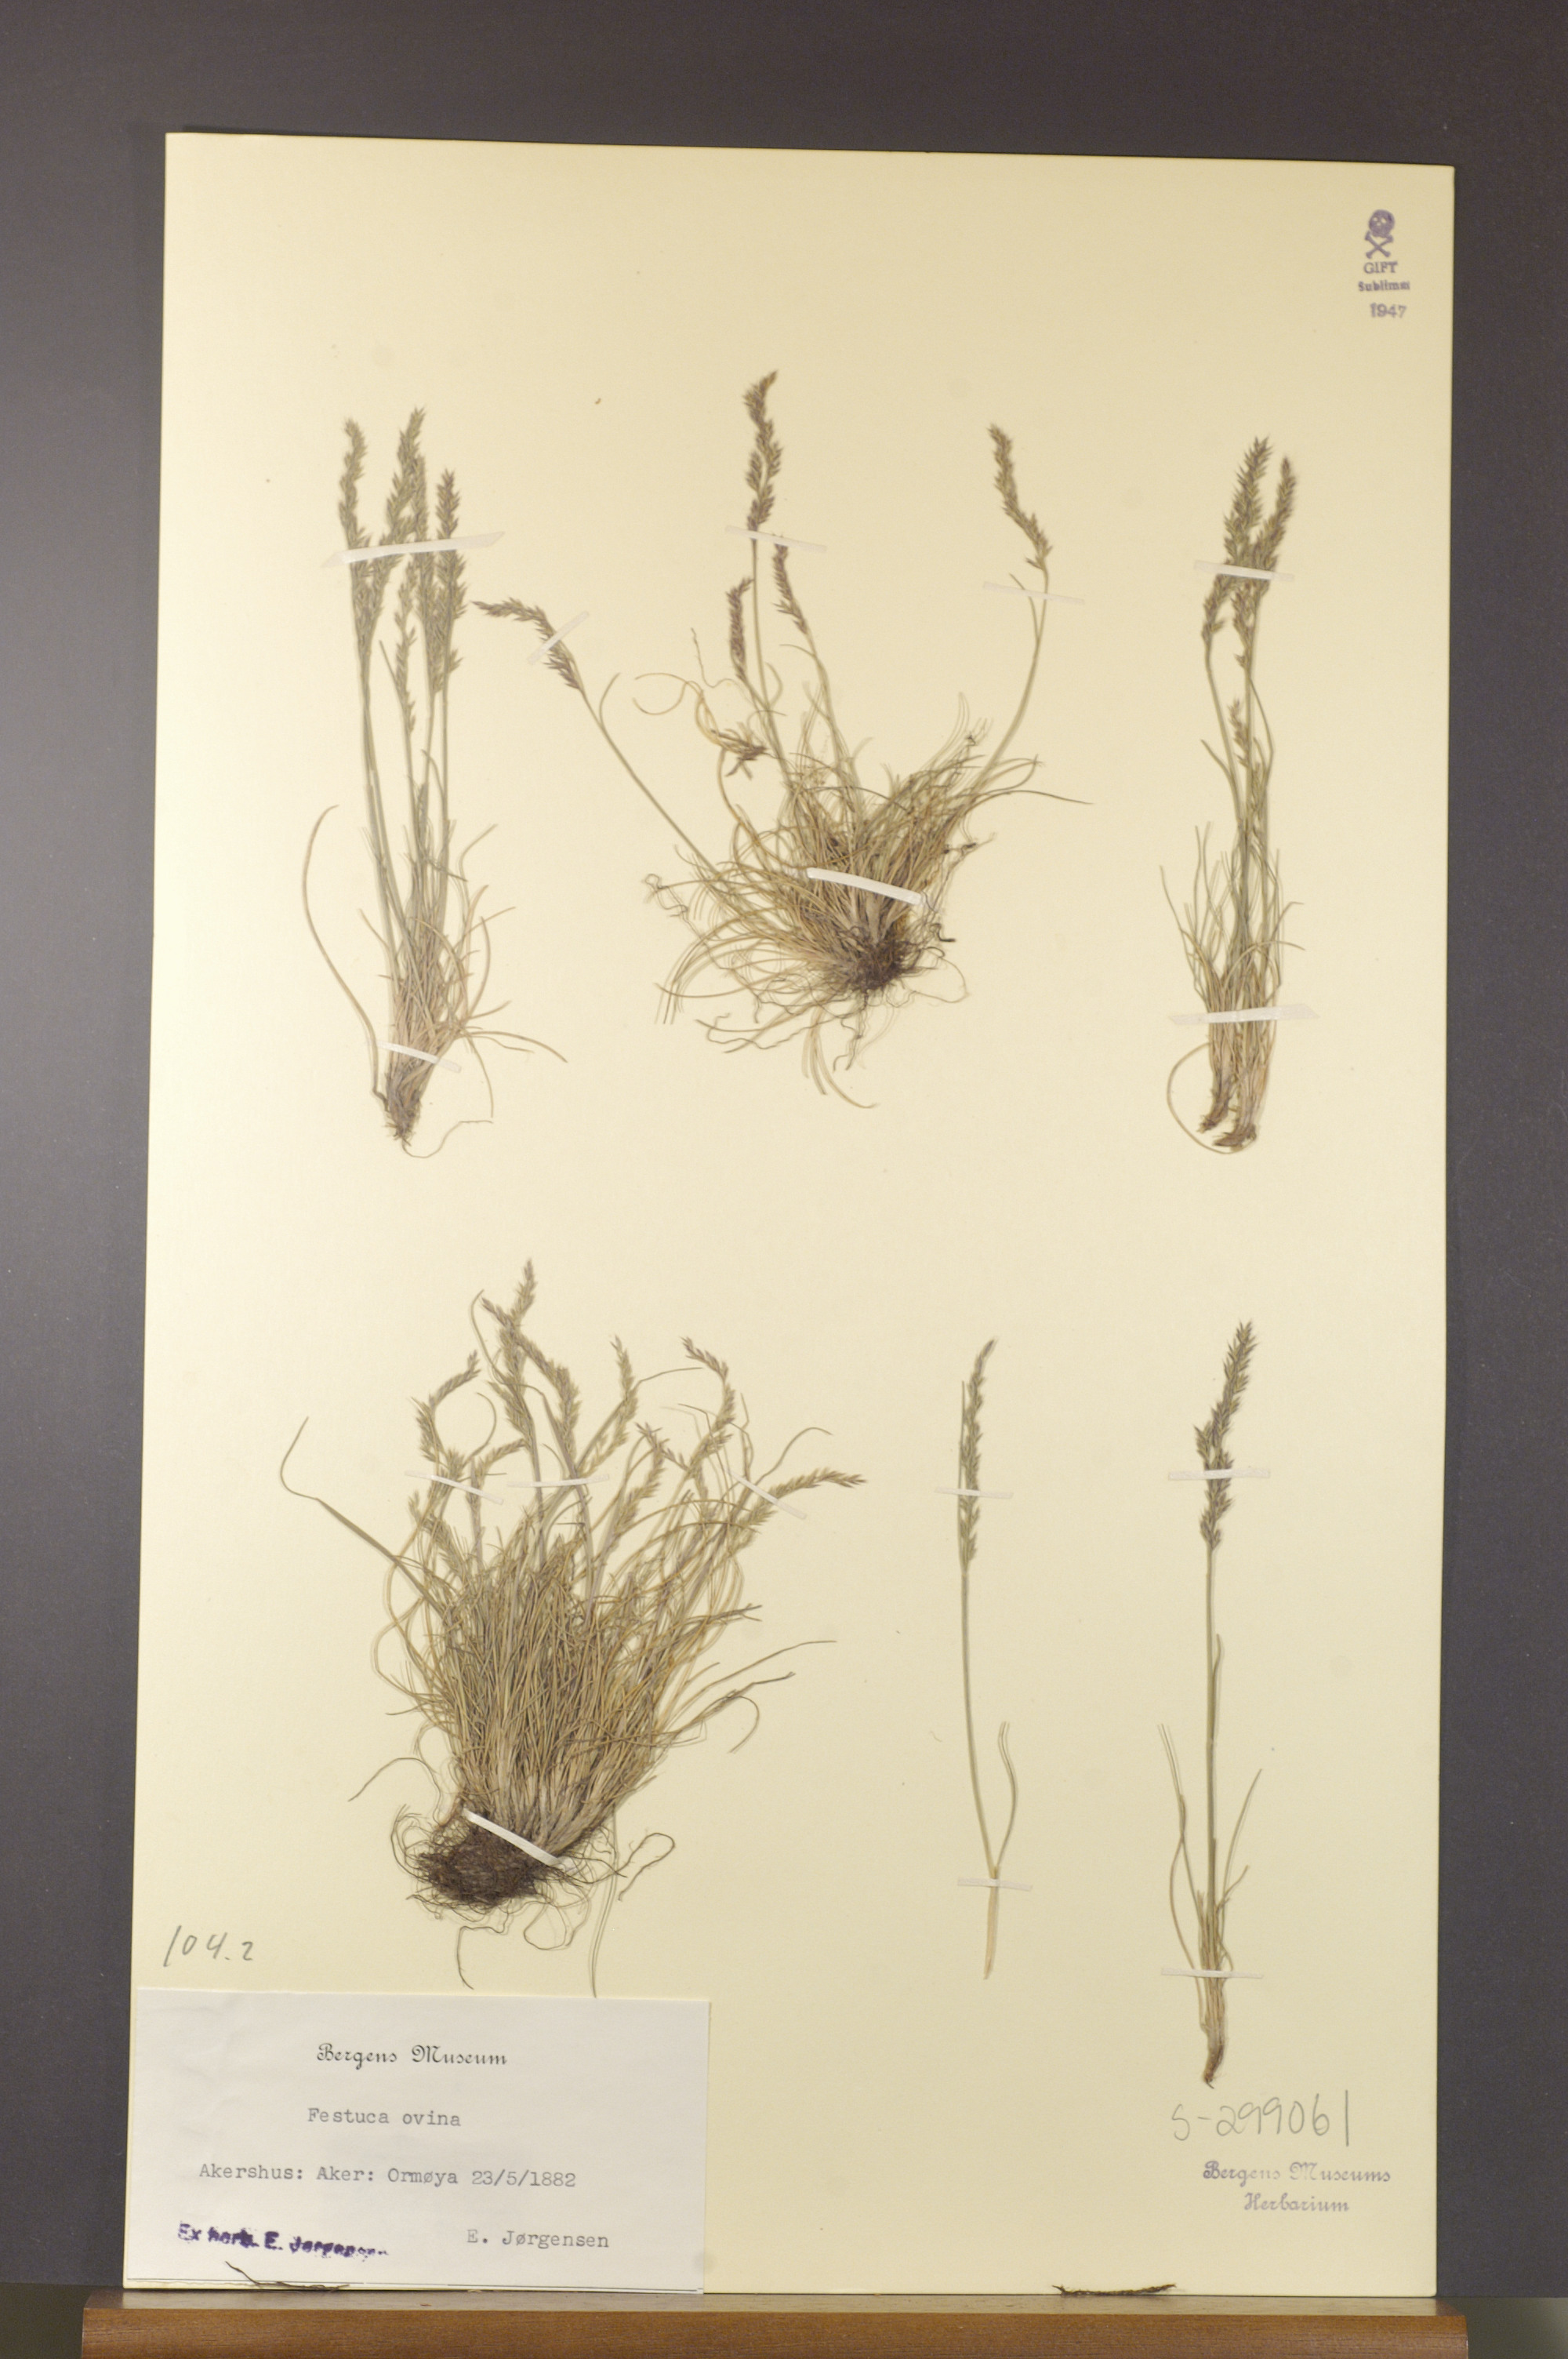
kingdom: Plantae
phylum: Tracheophyta
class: Liliopsida
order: Poales
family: Poaceae
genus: Festuca
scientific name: Festuca ovina
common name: Sheep fescue
